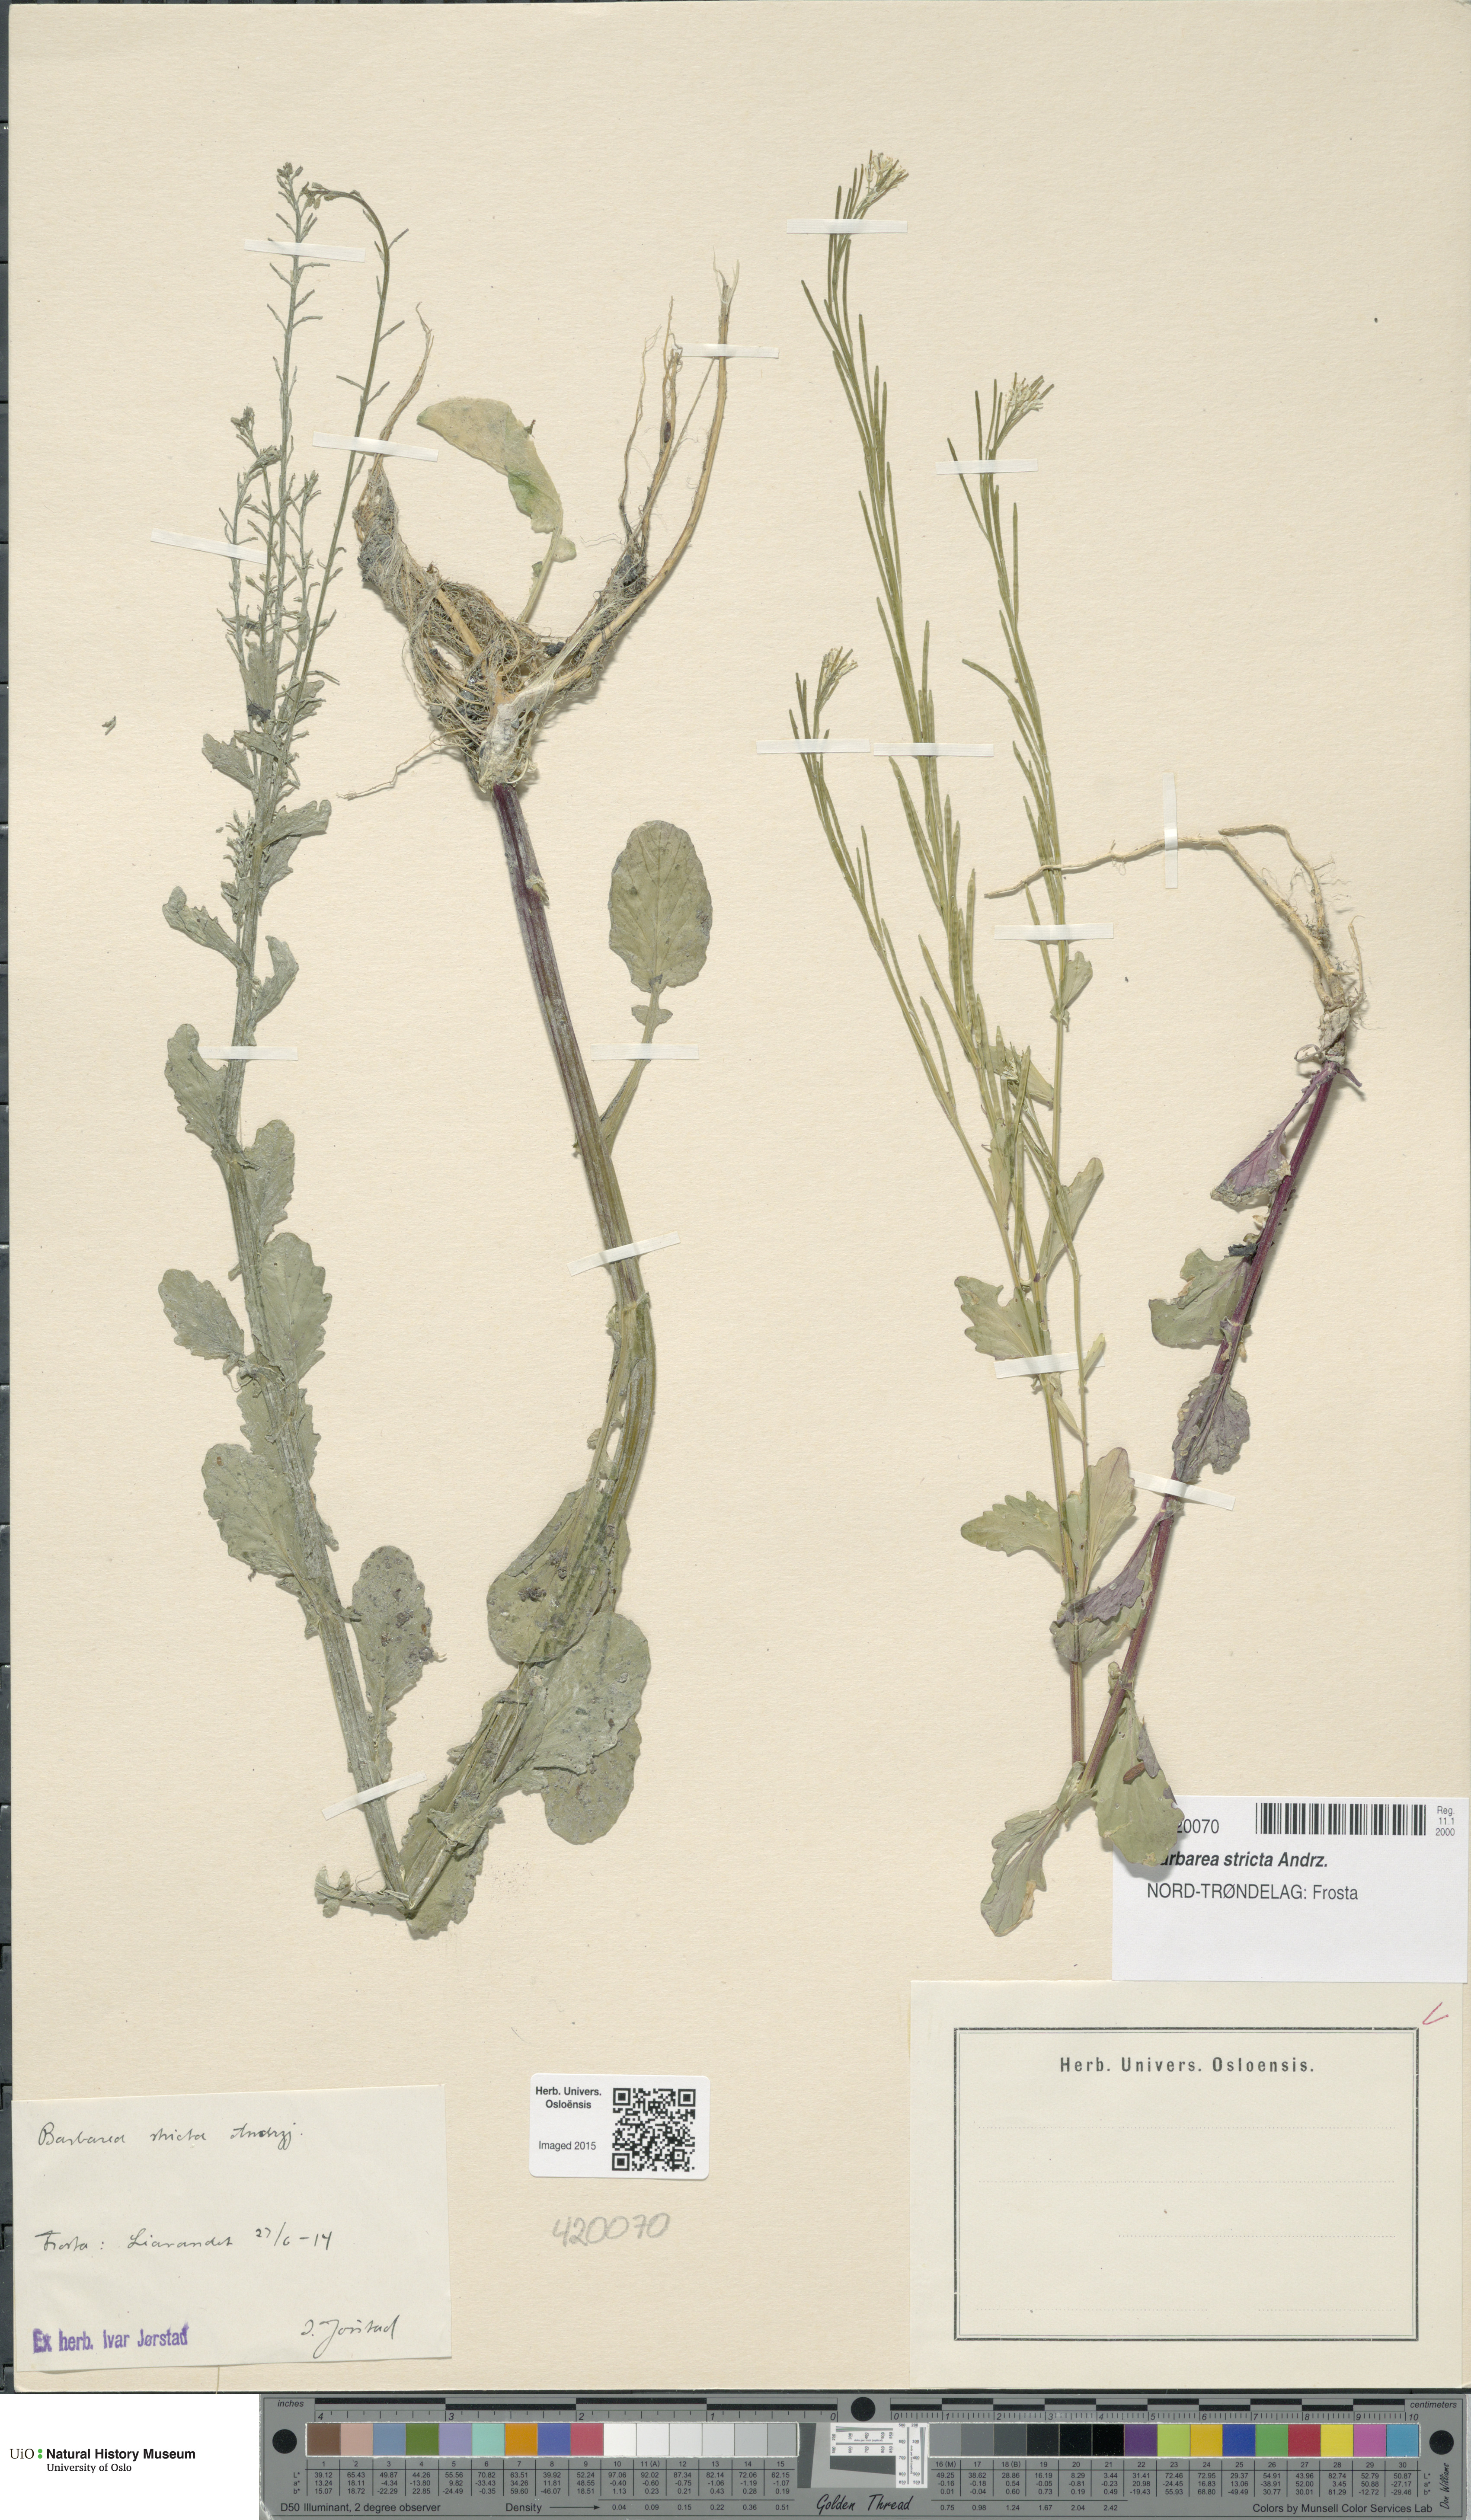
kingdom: Plantae
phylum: Tracheophyta
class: Magnoliopsida
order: Brassicales
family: Brassicaceae
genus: Barbarea
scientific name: Barbarea stricta
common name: Small-flowered winter-cress
